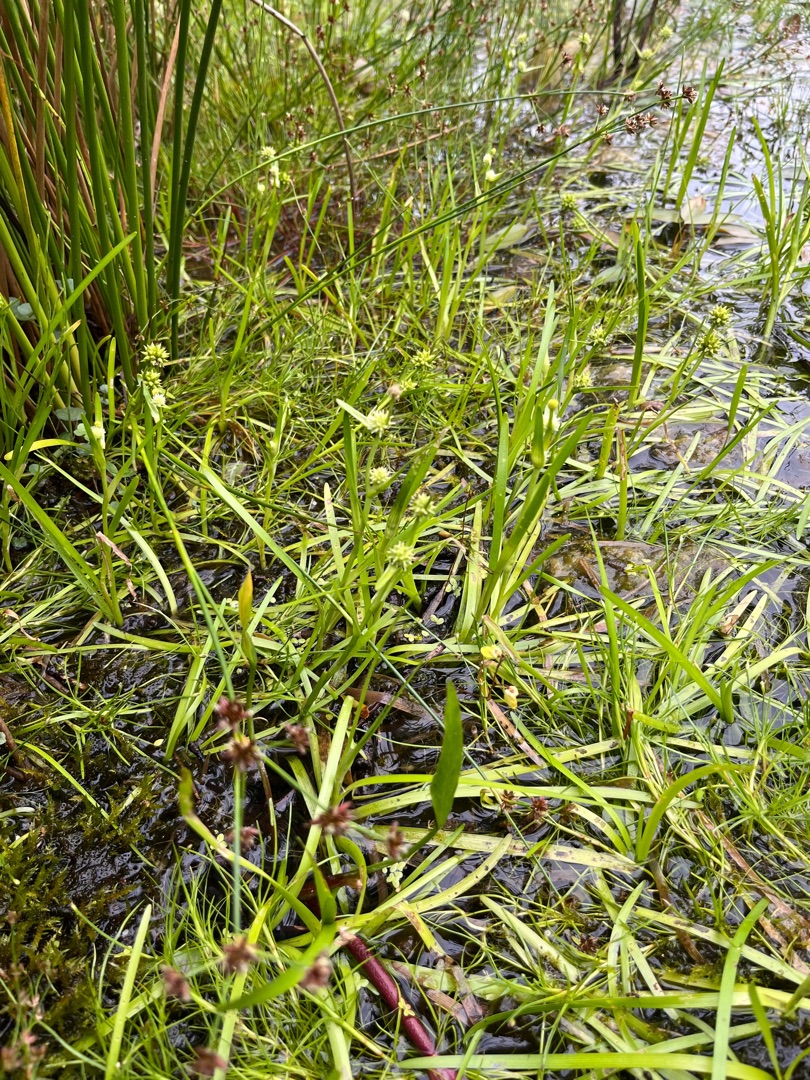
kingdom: Plantae
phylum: Tracheophyta
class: Liliopsida
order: Poales
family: Typhaceae
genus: Sparganium
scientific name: Sparganium natans
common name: Spæd pindsvineknop
